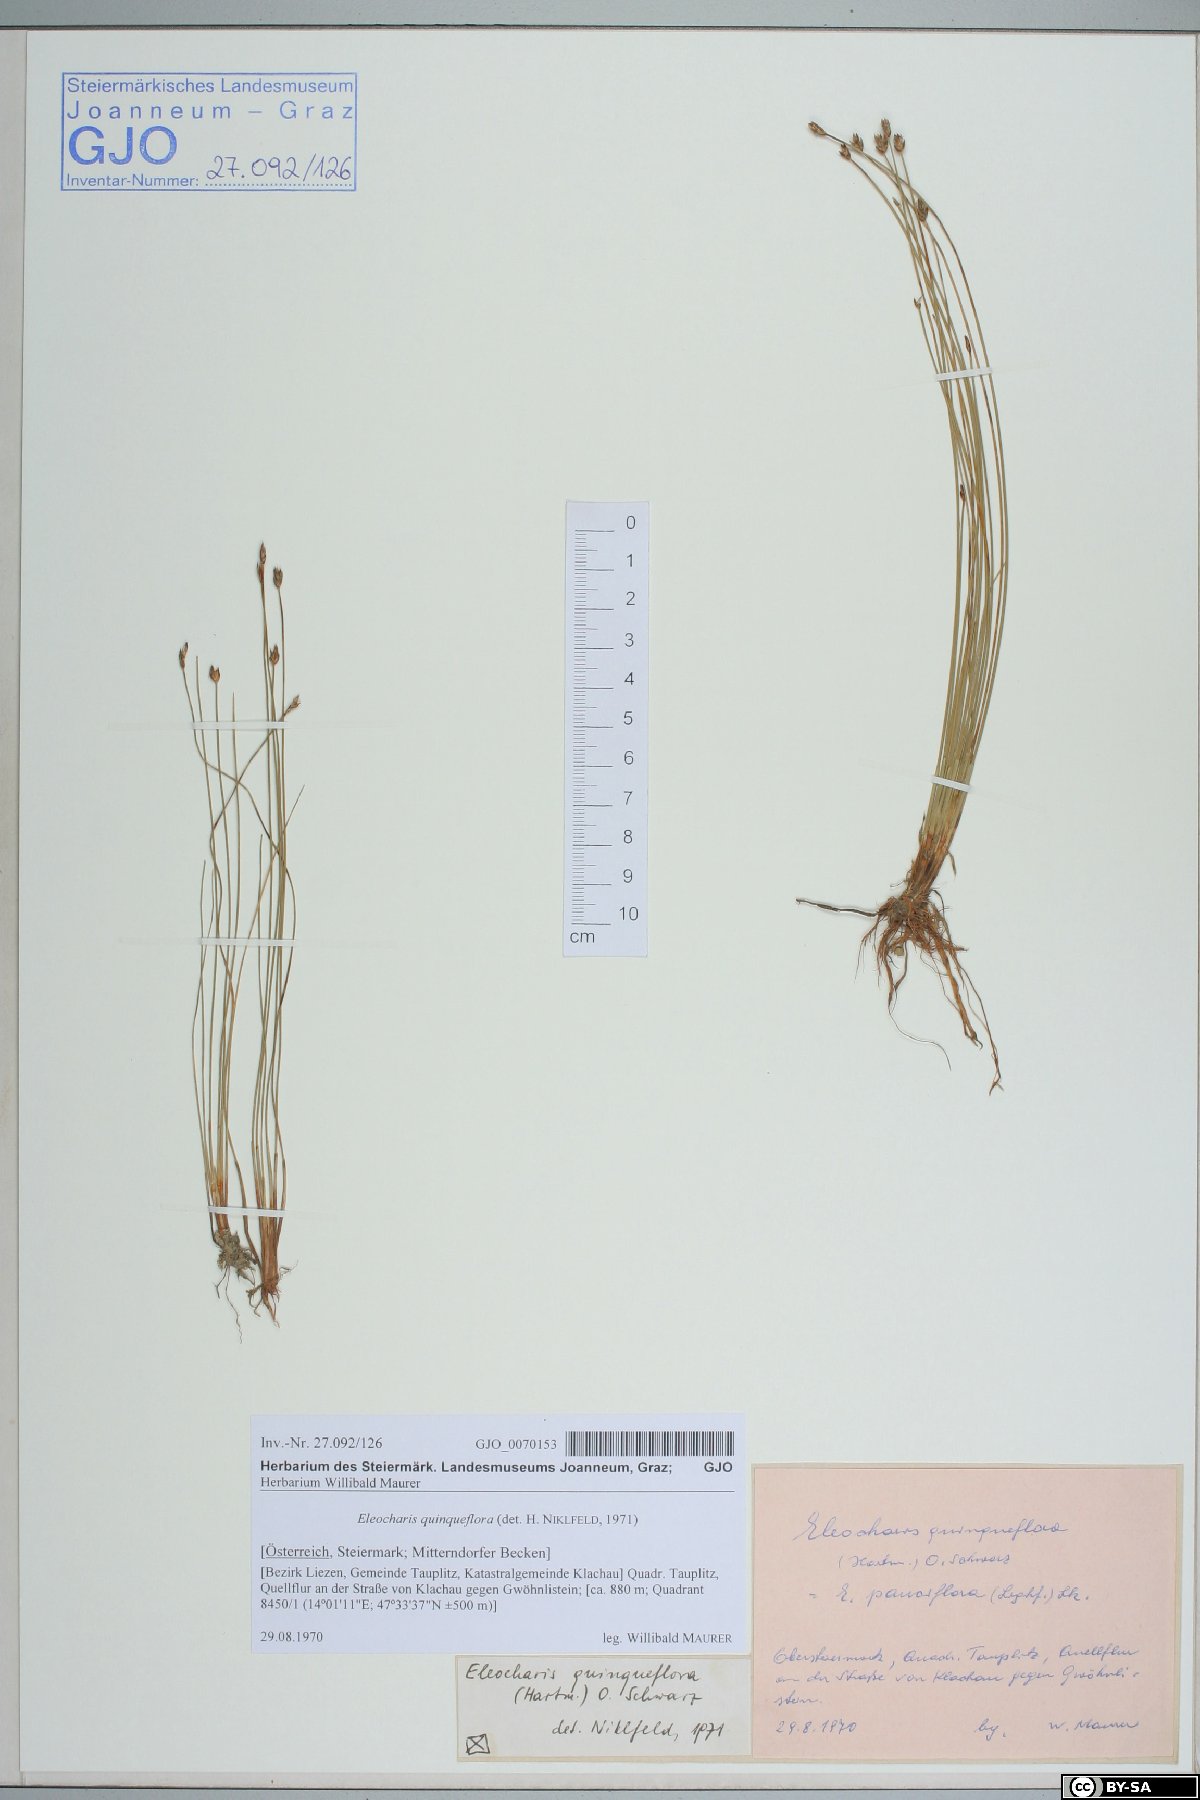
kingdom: Plantae
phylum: Tracheophyta
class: Liliopsida
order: Poales
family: Cyperaceae
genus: Eleocharis
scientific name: Eleocharis quinqueflora
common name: Few-flowered spike-rush
